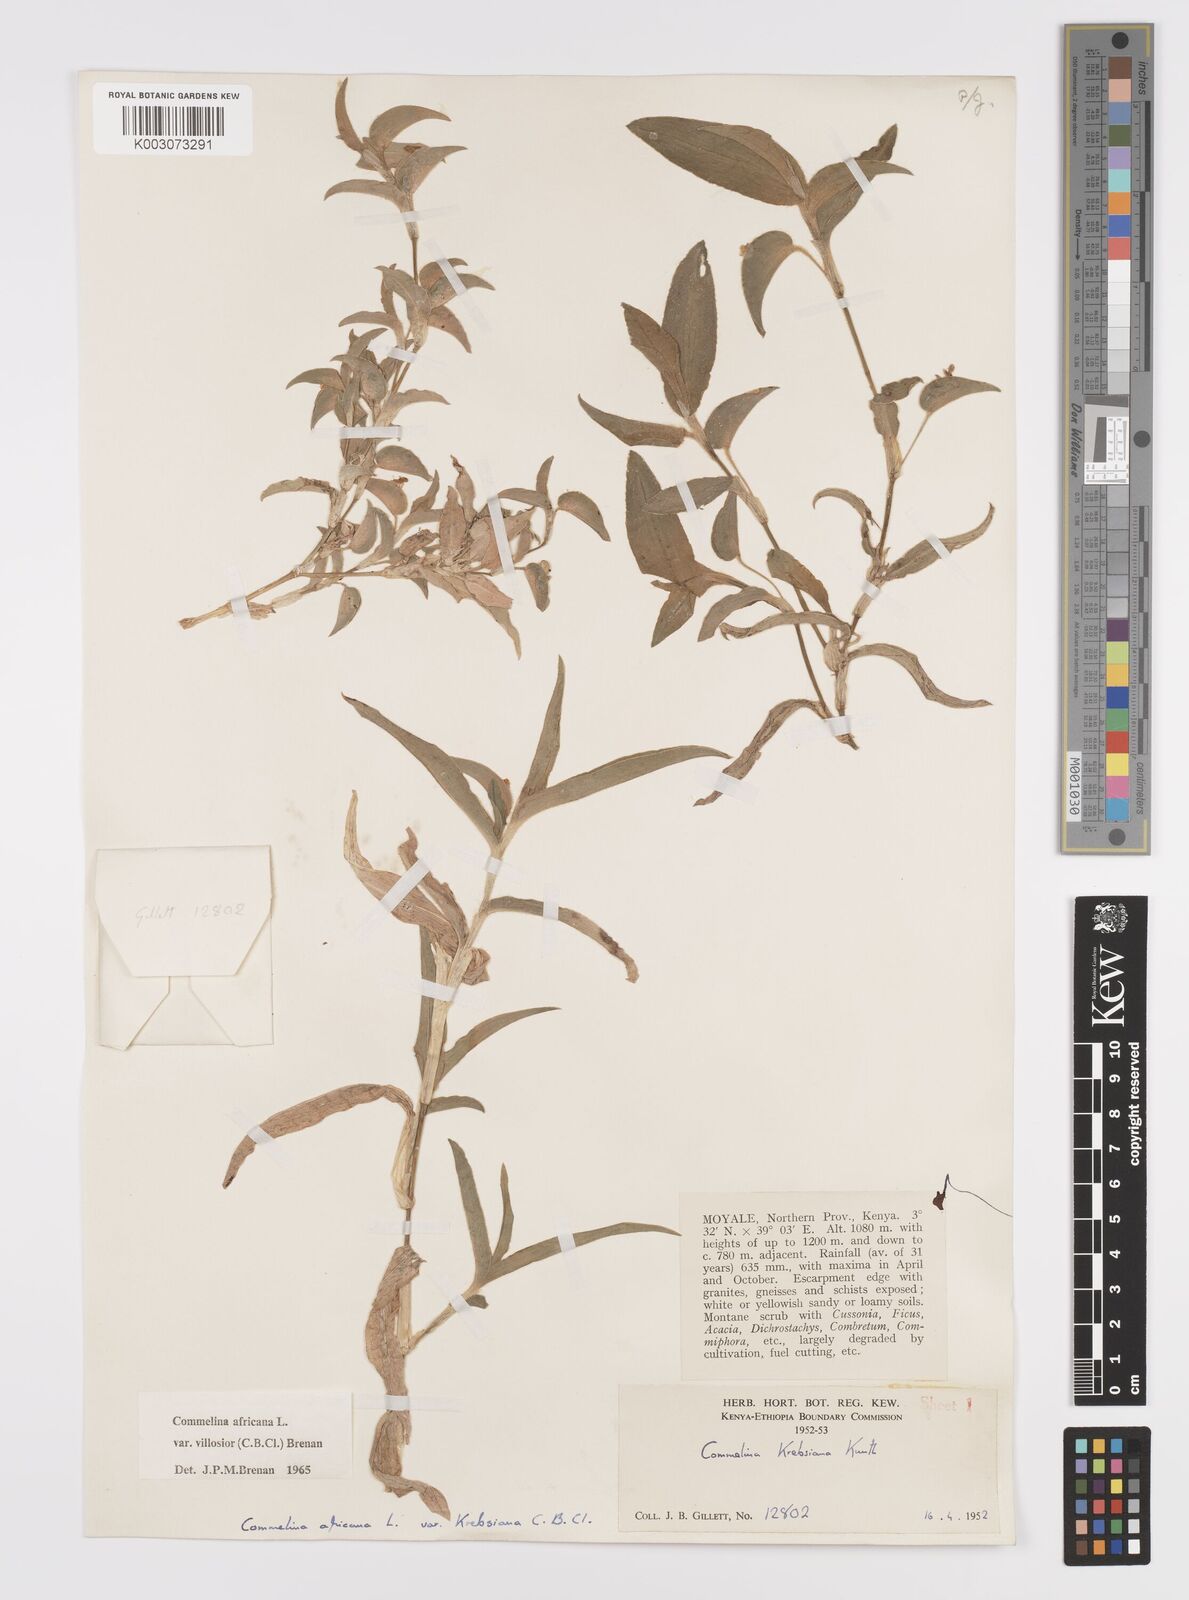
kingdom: Plantae
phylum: Tracheophyta
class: Liliopsida
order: Commelinales
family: Commelinaceae
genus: Commelina
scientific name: Commelina africana
